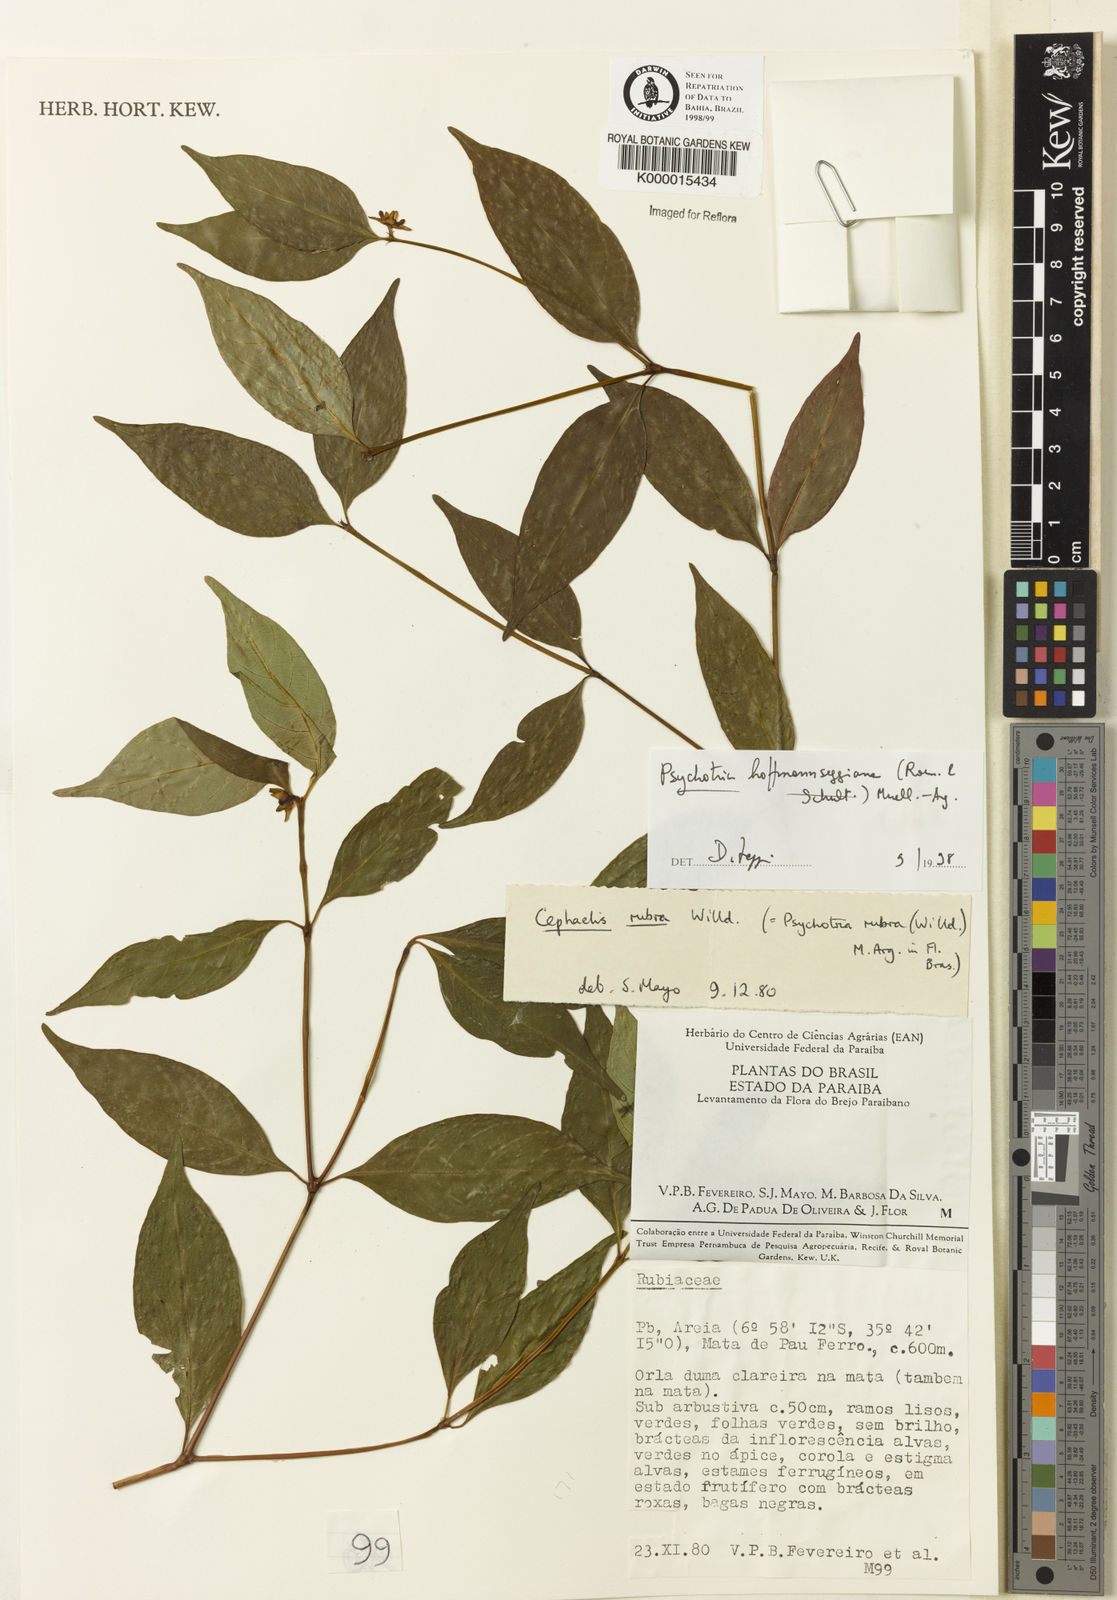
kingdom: Plantae
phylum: Tracheophyta
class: Magnoliopsida
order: Gentianales
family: Rubiaceae
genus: Psychotria
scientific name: Psychotria
